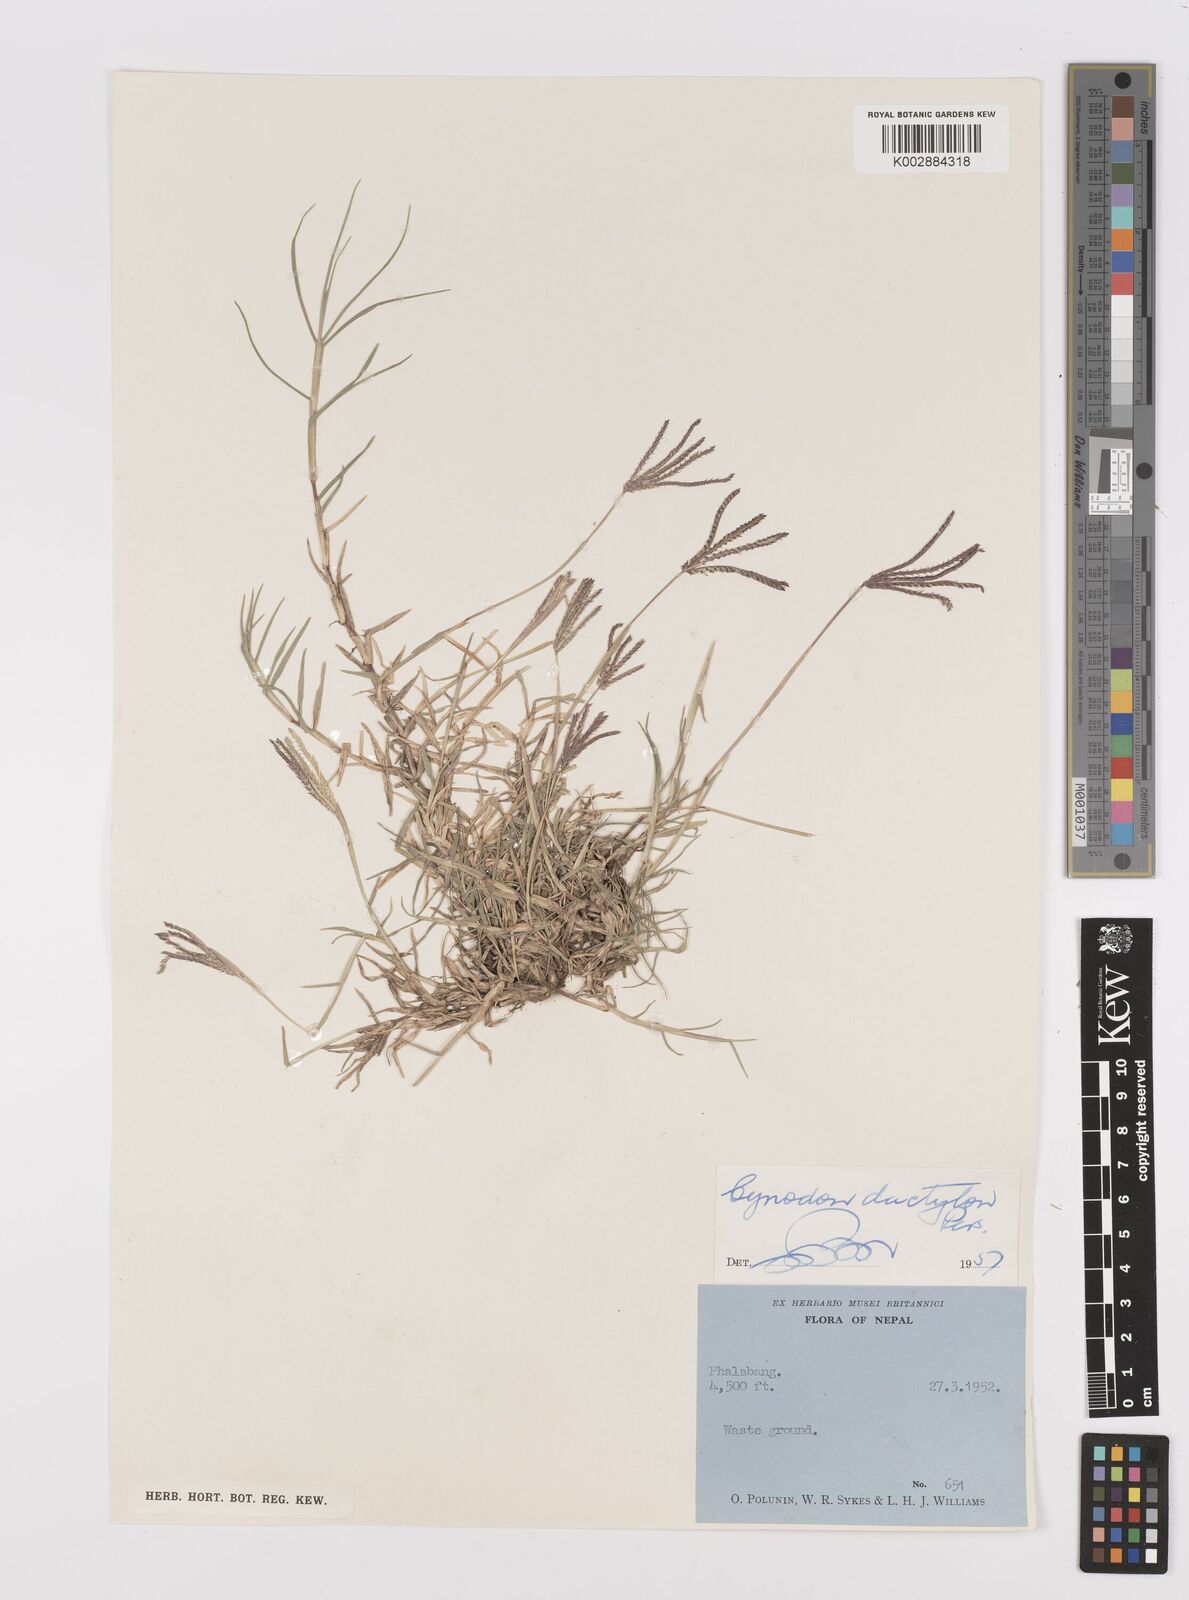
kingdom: Plantae
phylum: Tracheophyta
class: Liliopsida
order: Poales
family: Poaceae
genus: Cynodon
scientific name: Cynodon dactylon
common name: Bermuda grass
